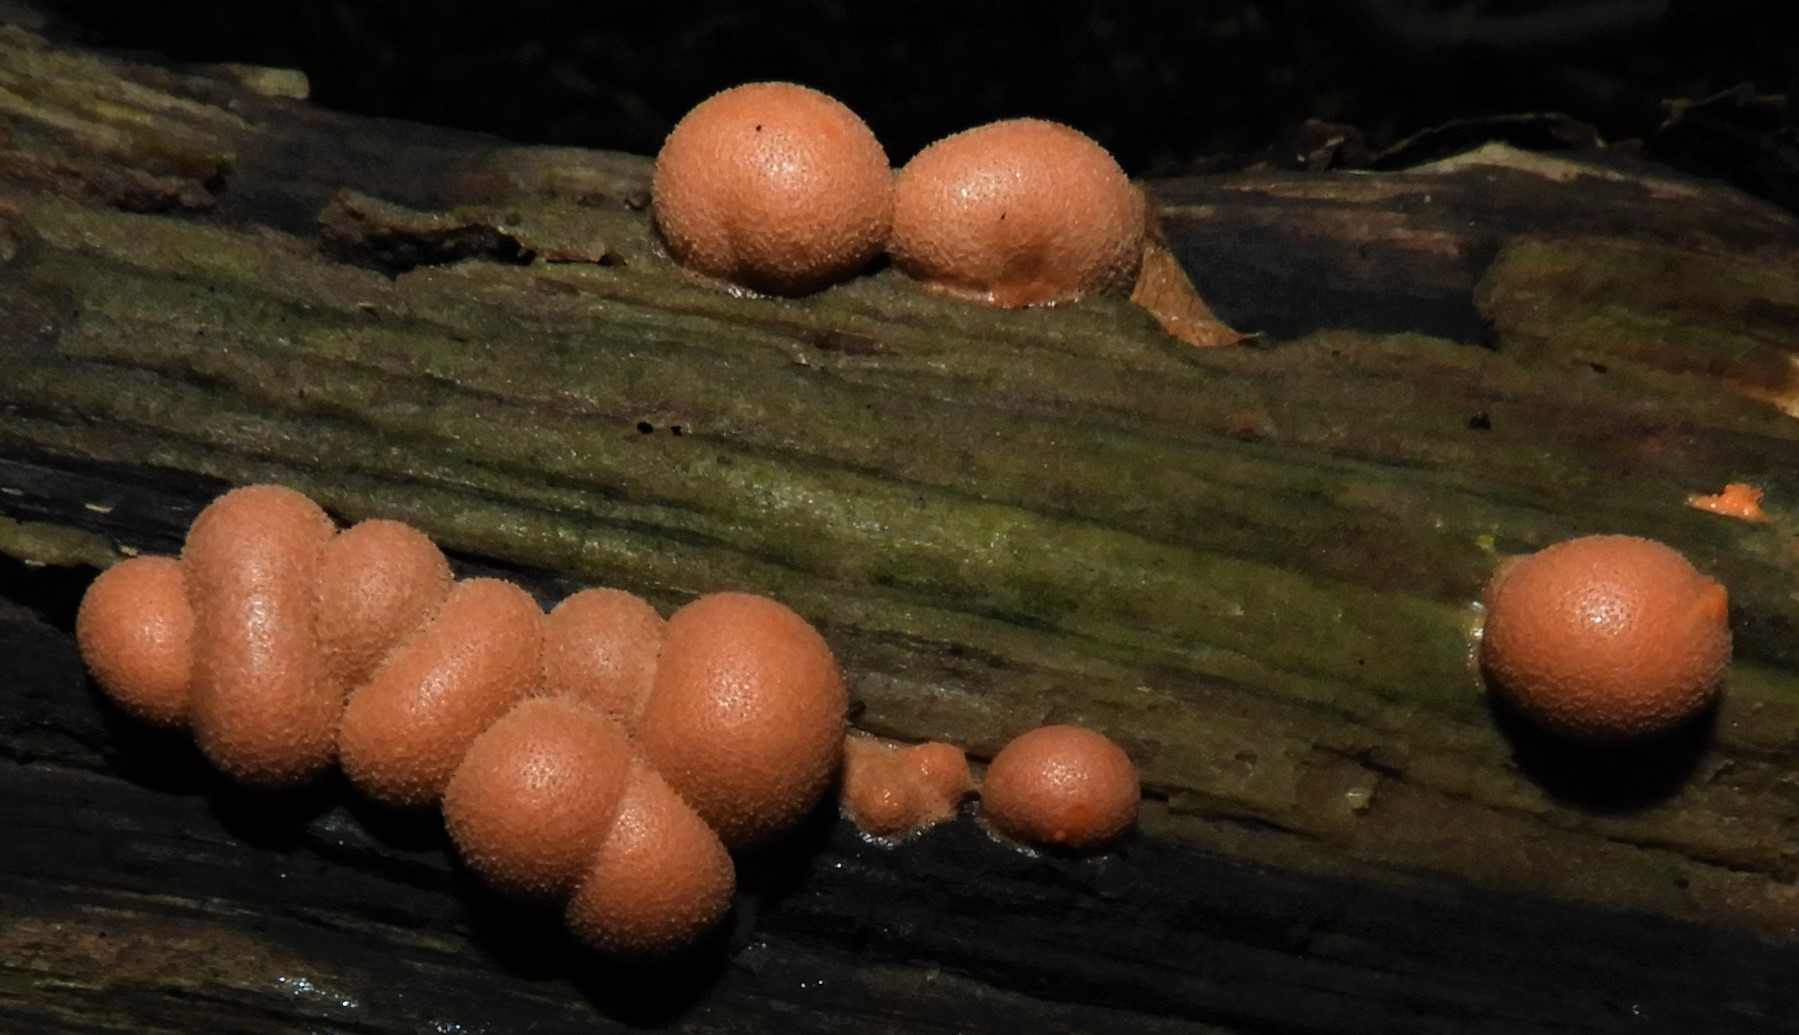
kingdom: Protozoa
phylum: Mycetozoa
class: Myxomycetes
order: Cribrariales
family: Tubiferaceae
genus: Lycogala
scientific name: Lycogala epidendrum
